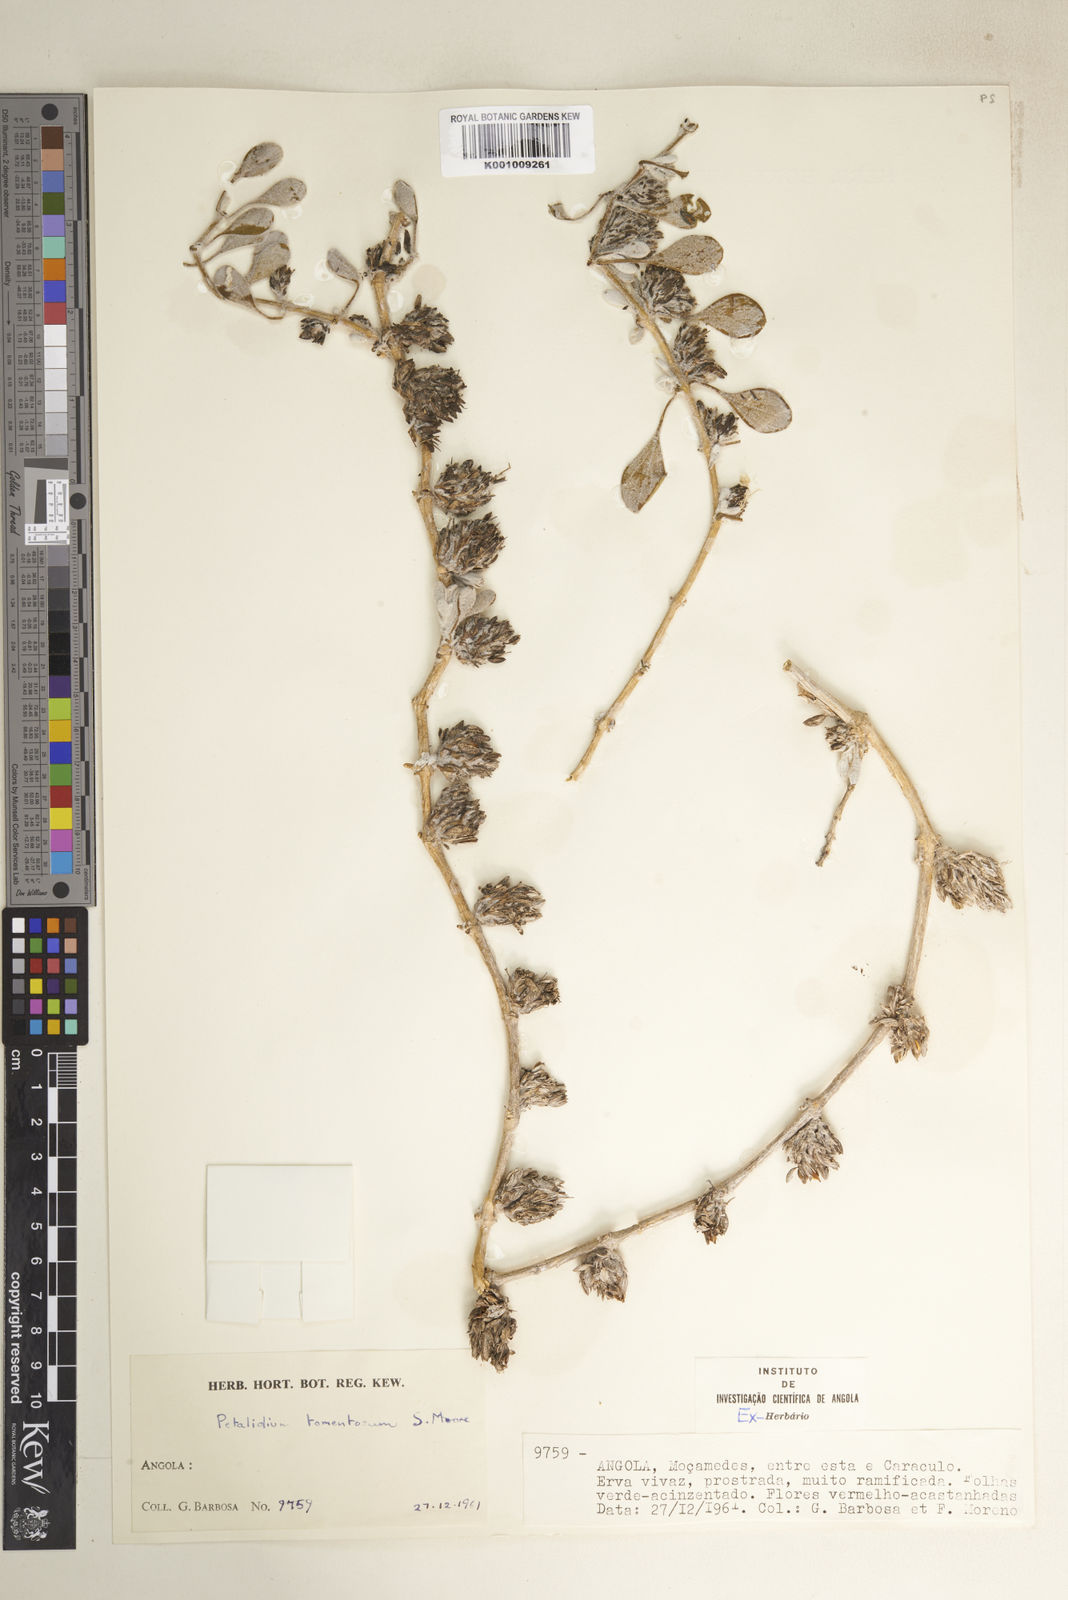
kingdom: Plantae
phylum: Tracheophyta
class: Magnoliopsida
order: Lamiales
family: Acanthaceae
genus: Petalidium
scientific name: Petalidium tomentosum
